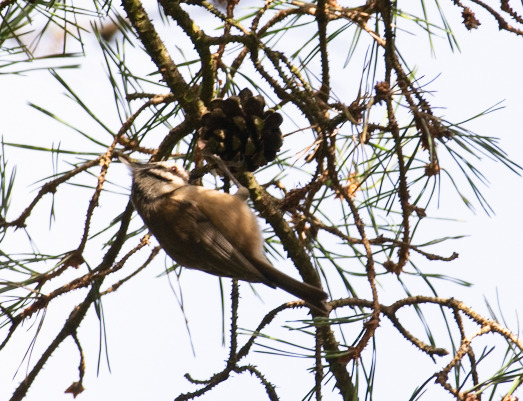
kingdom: Animalia
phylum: Chordata
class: Aves
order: Passeriformes
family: Paridae
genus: Lophophanes
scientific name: Lophophanes cristatus
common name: Topmejse
